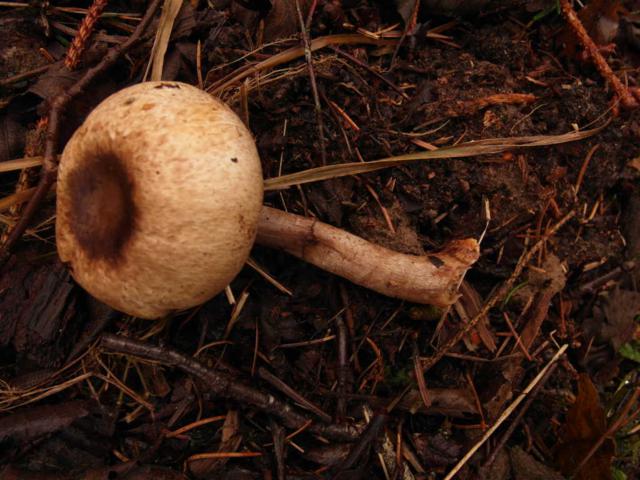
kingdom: Fungi
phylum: Basidiomycota
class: Agaricomycetes
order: Agaricales
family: Agaricaceae
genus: Agaricus
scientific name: Agaricus impudicus
